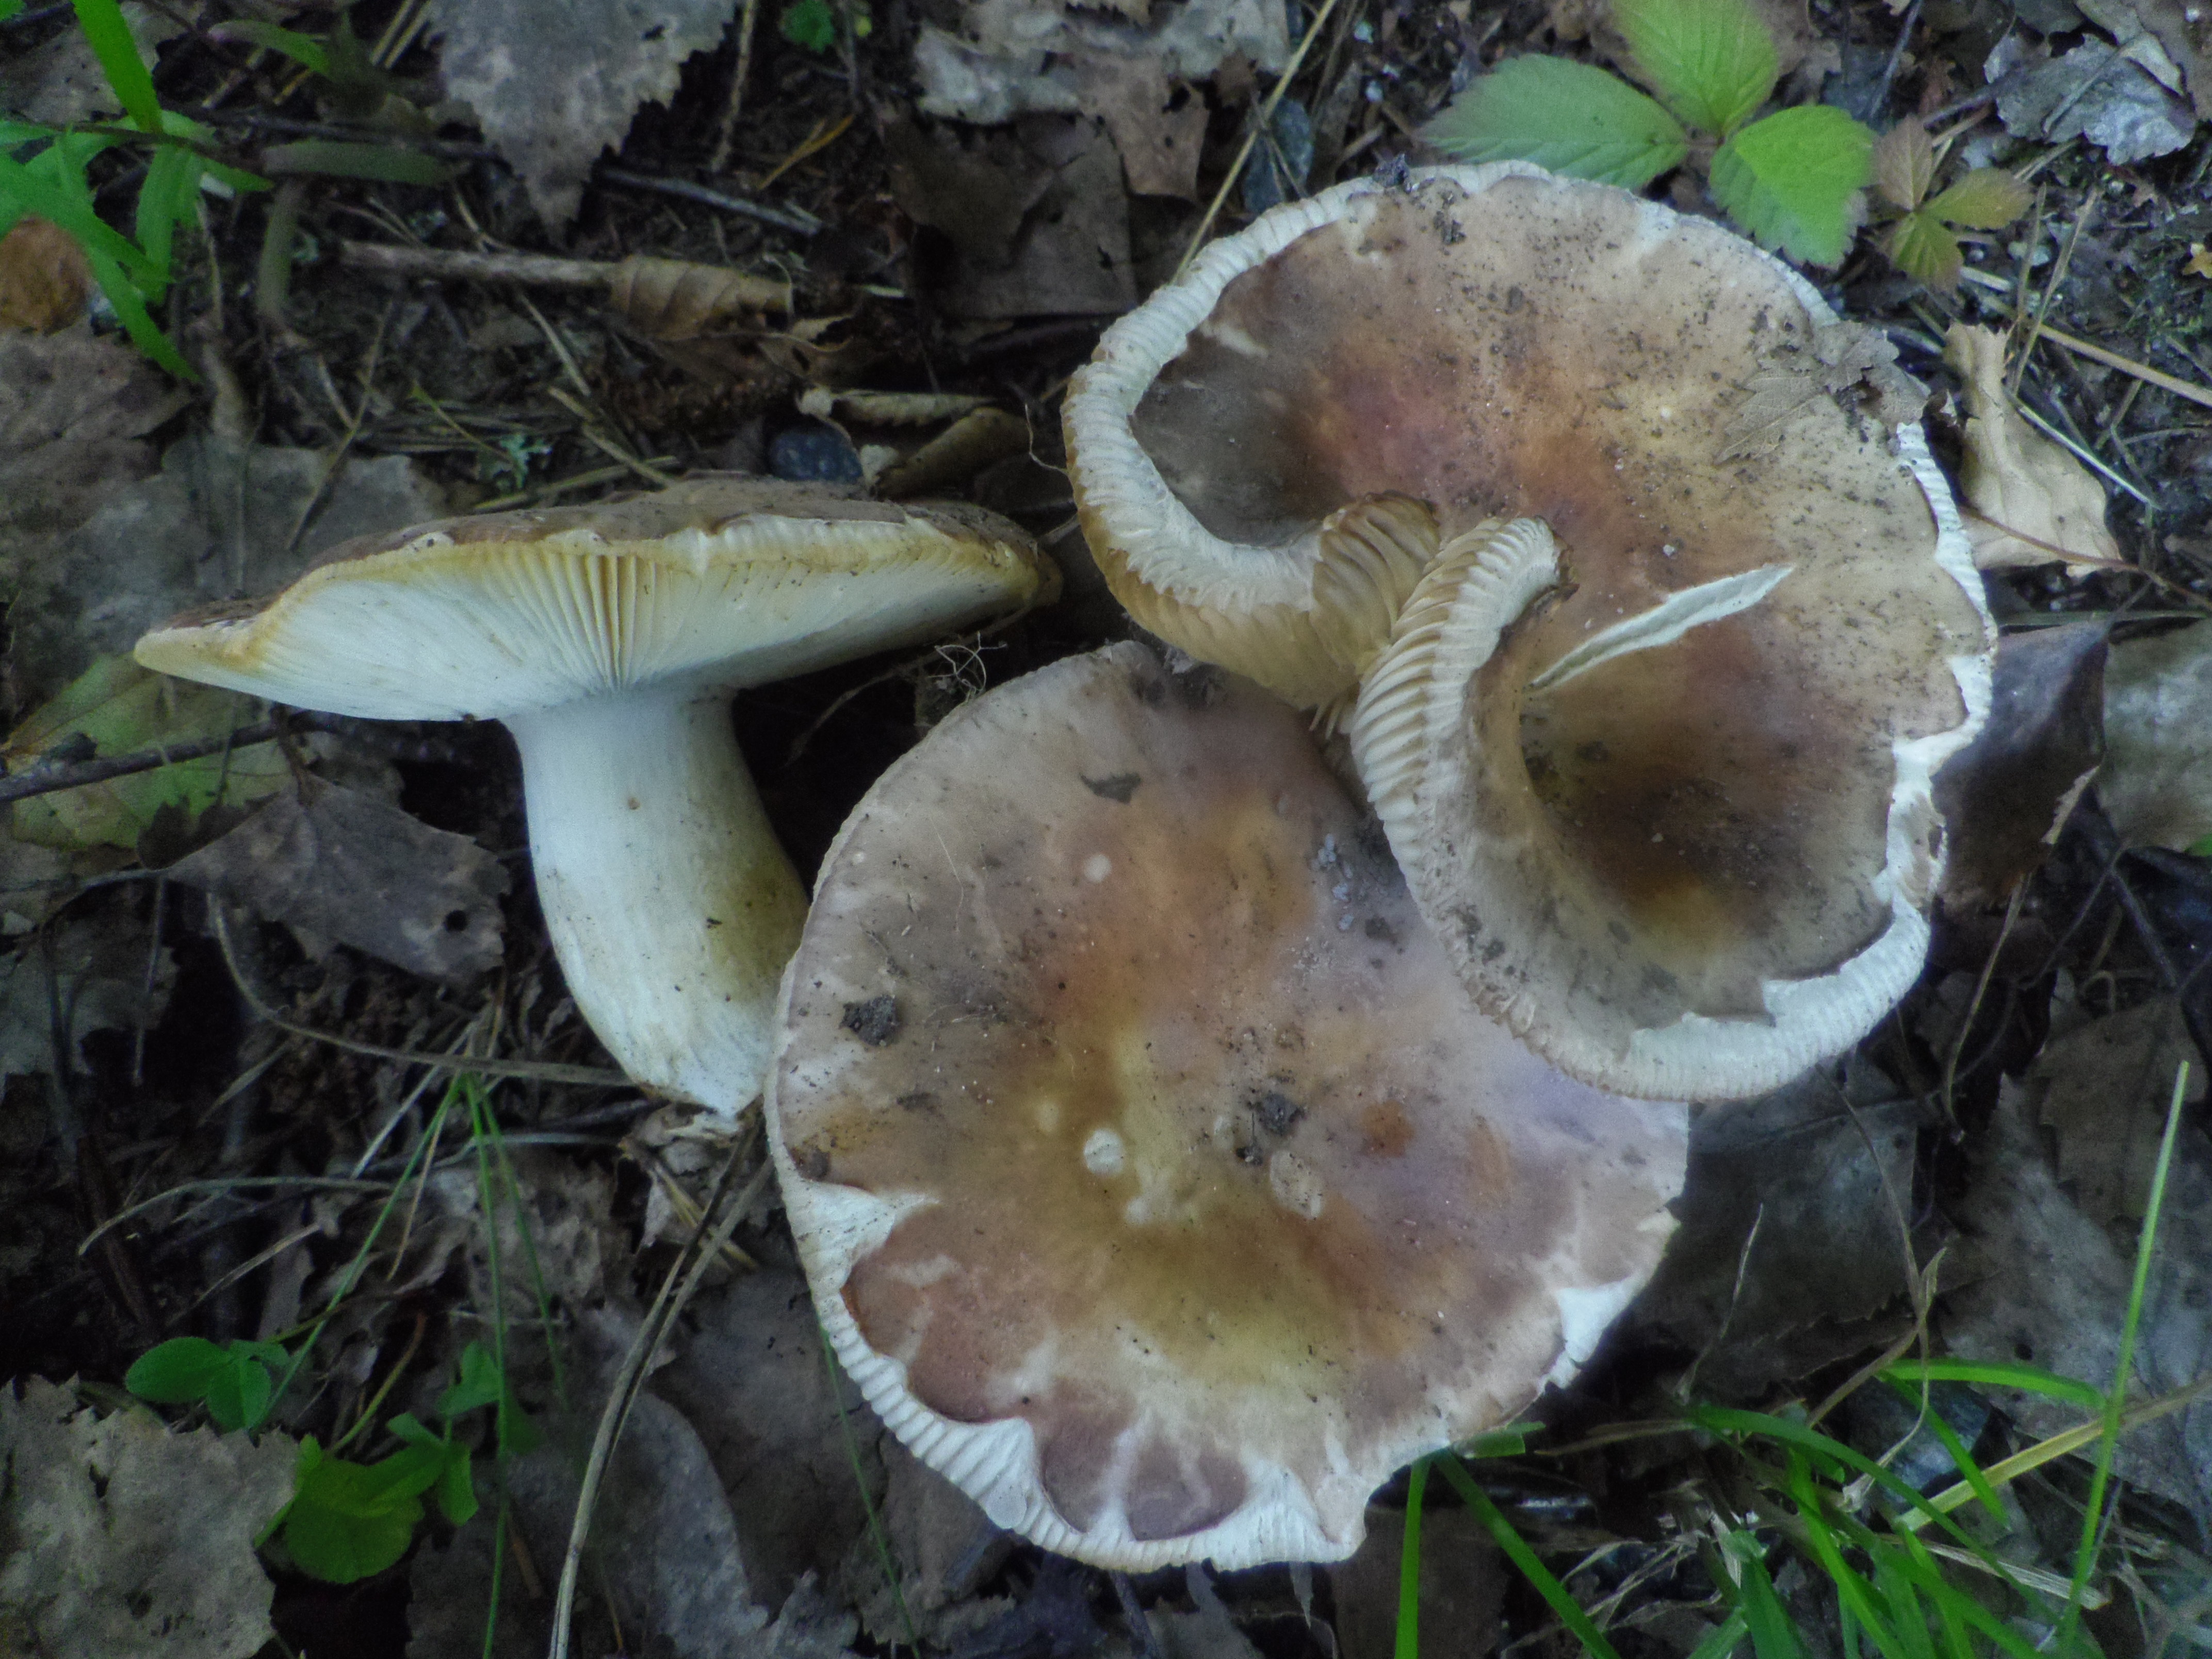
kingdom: Fungi
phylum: Basidiomycota
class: Agaricomycetes
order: Russulales
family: Russulaceae
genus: Russula
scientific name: Russula vesca
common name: Bare-toothed russula
